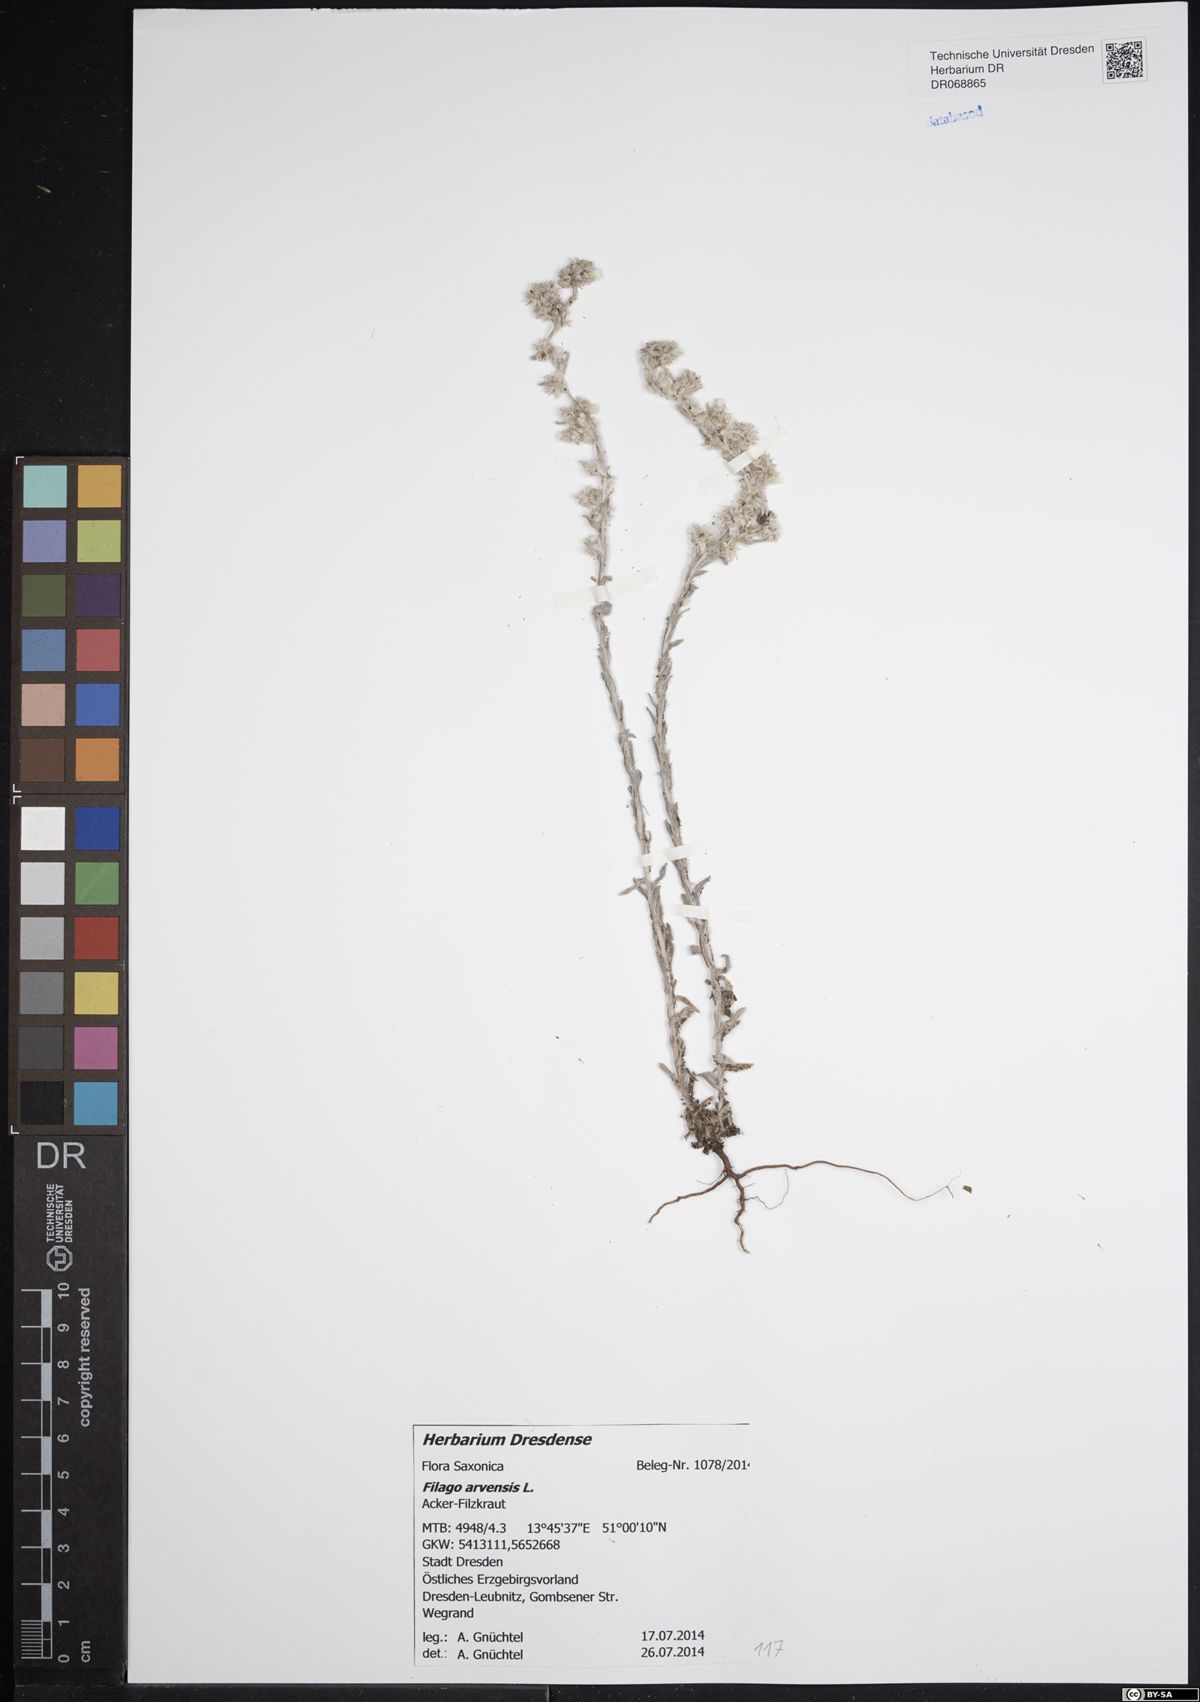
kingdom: Plantae
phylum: Tracheophyta
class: Magnoliopsida
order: Asterales
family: Asteraceae
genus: Filago
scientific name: Filago arvensis
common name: Field cudweed
